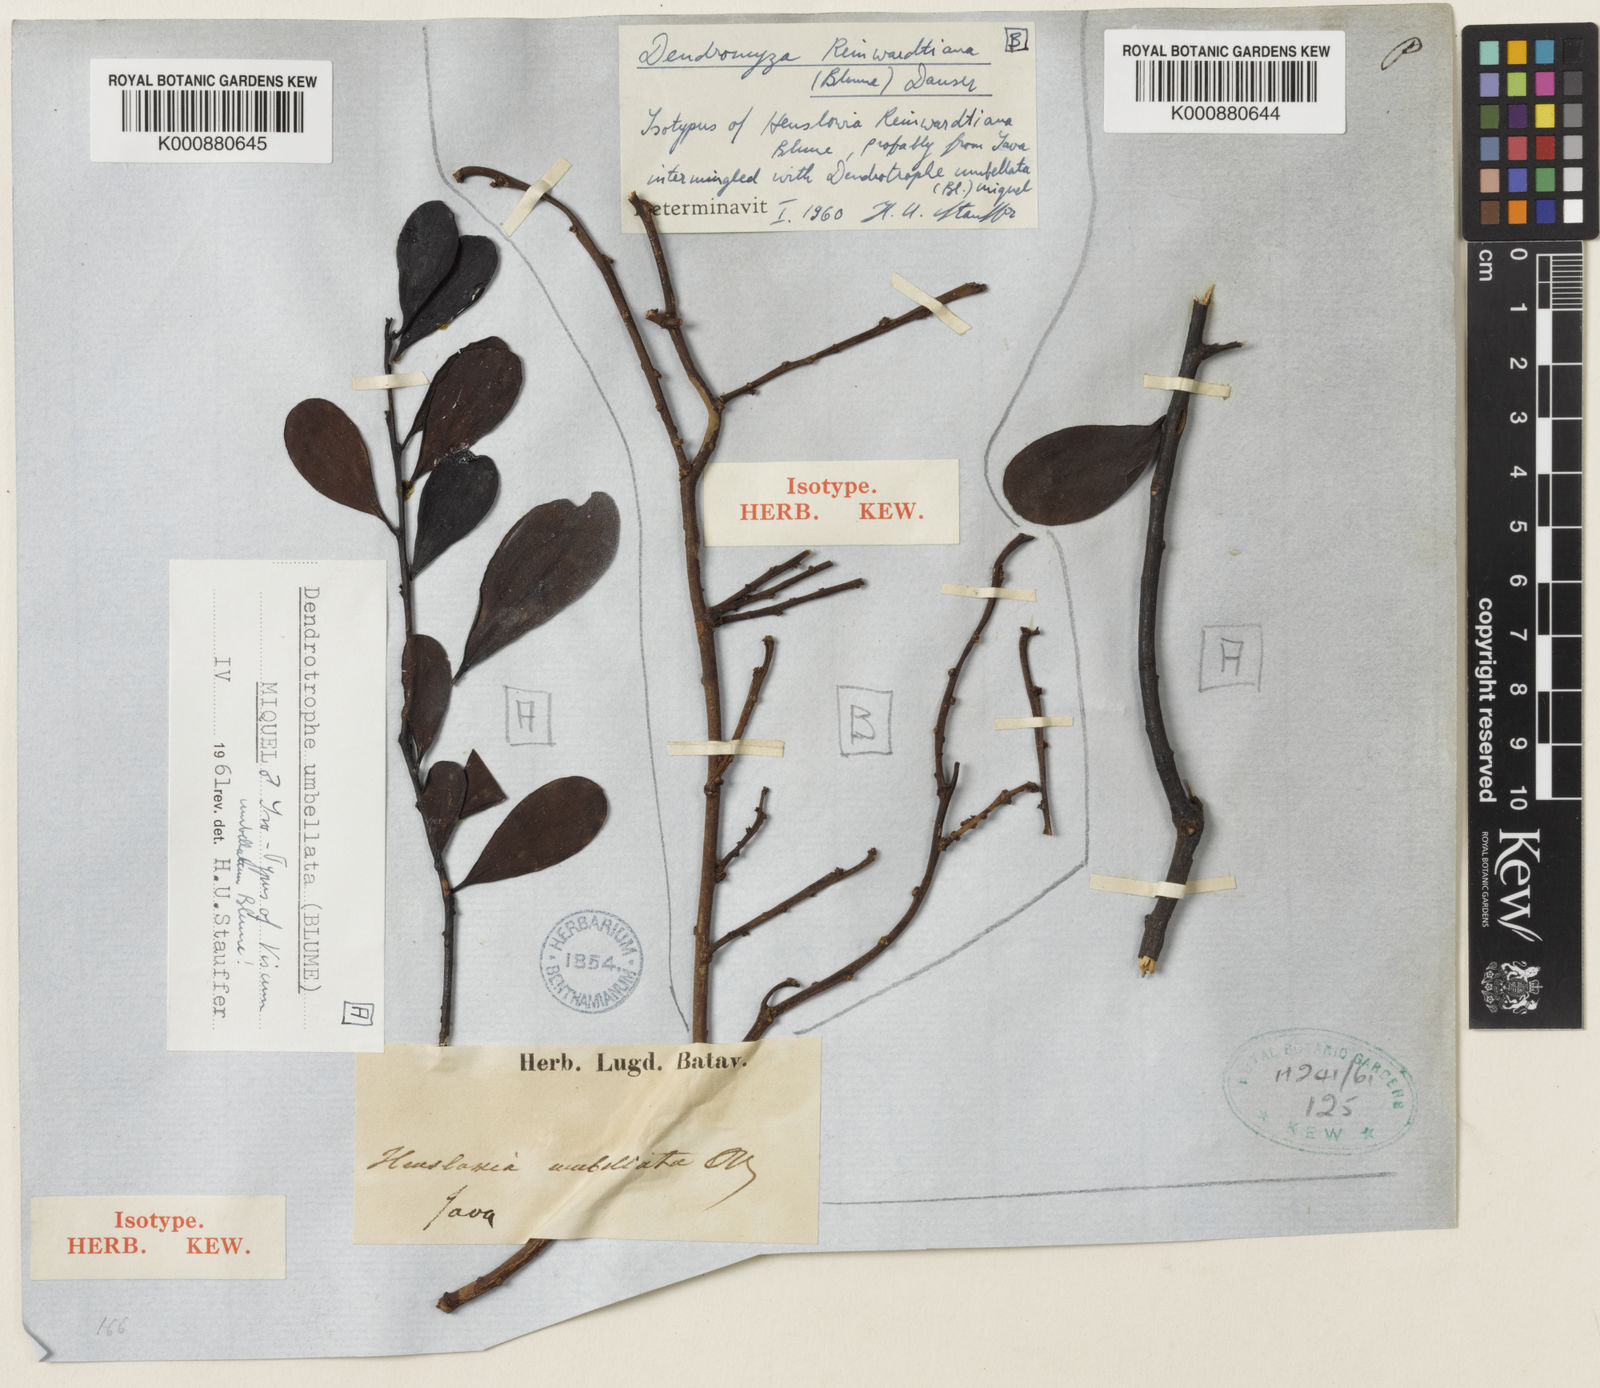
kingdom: Plantae
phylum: Tracheophyta
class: Magnoliopsida
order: Santalales
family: Amphorogynaceae
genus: Dendrotrophe
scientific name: Dendrotrophe umbellata
